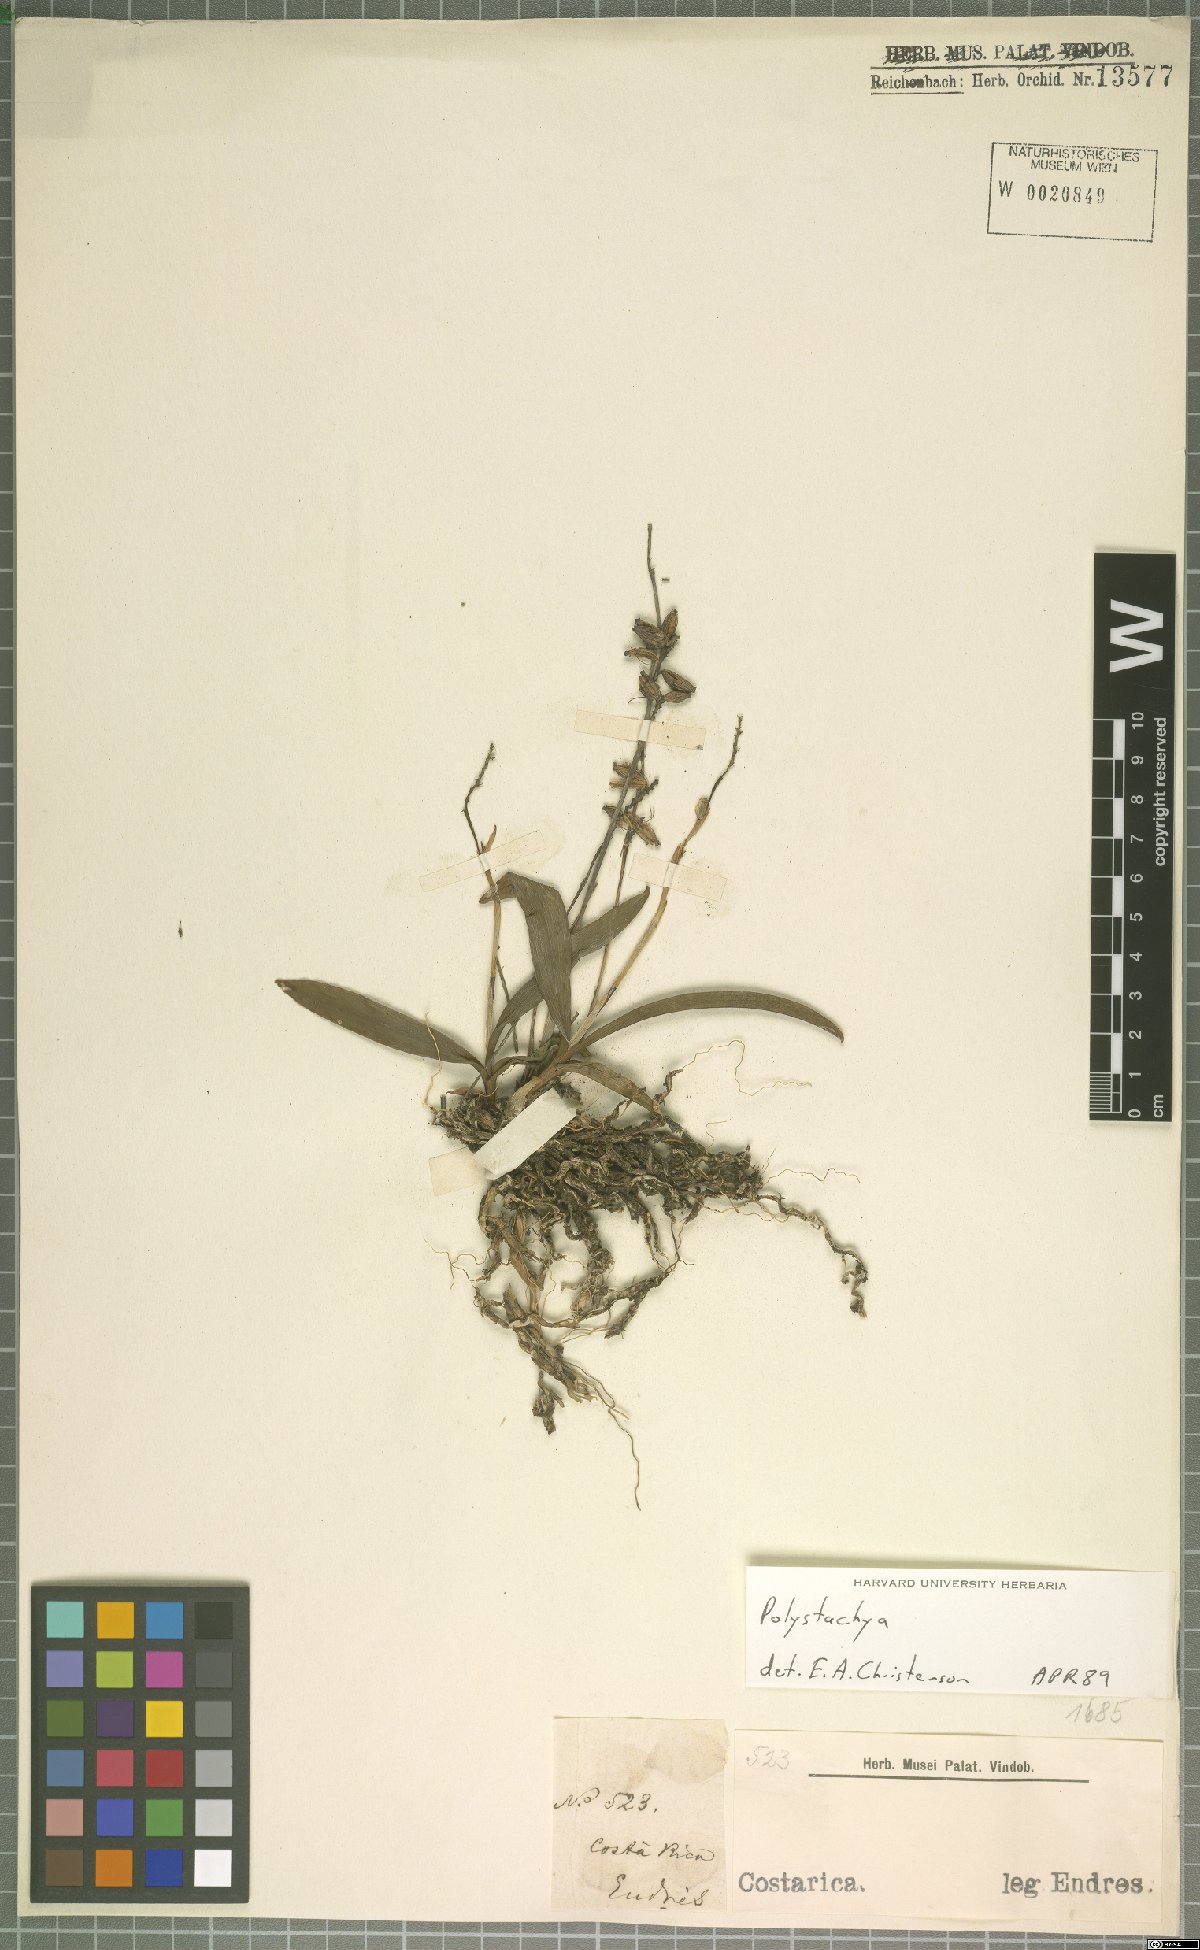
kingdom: Plantae
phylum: Tracheophyta
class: Liliopsida
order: Asparagales
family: Orchidaceae
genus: Polystachya
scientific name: Polystachya foliosa
